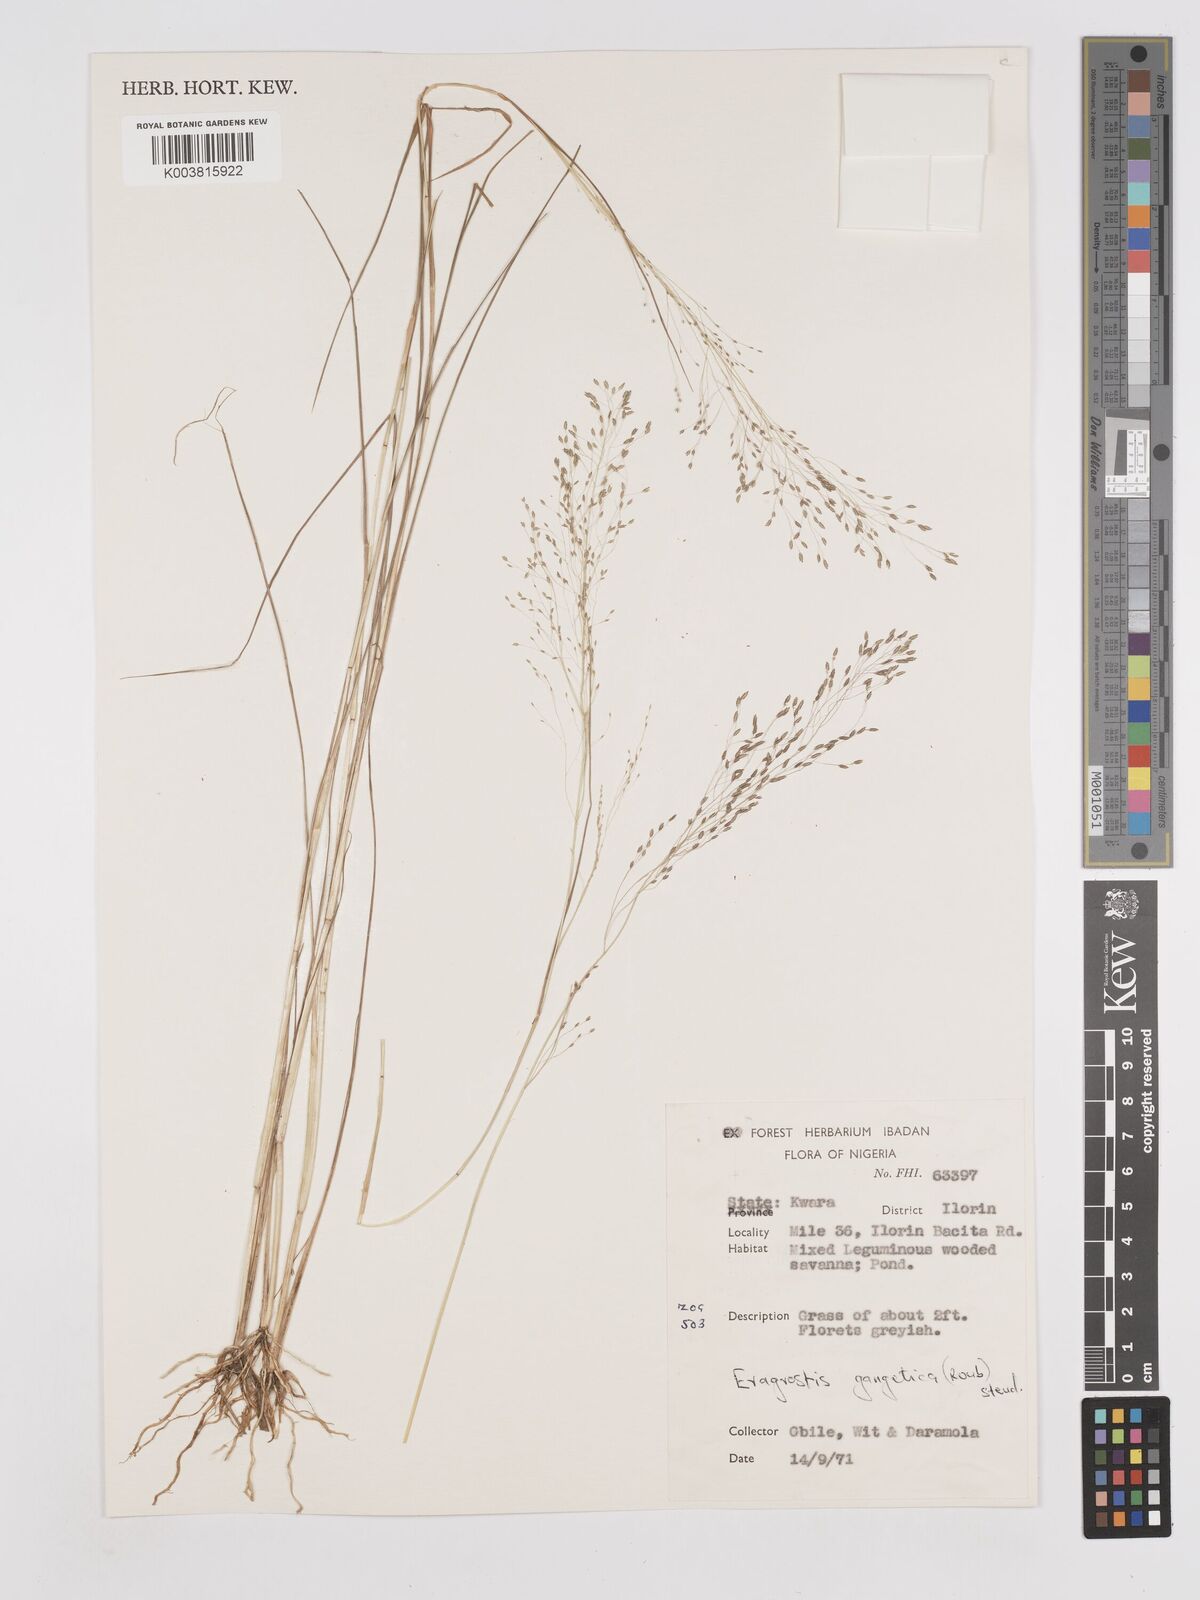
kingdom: Plantae
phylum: Tracheophyta
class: Liliopsida
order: Poales
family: Poaceae
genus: Eragrostis
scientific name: Eragrostis gangetica
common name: Slimflower lovegrass
